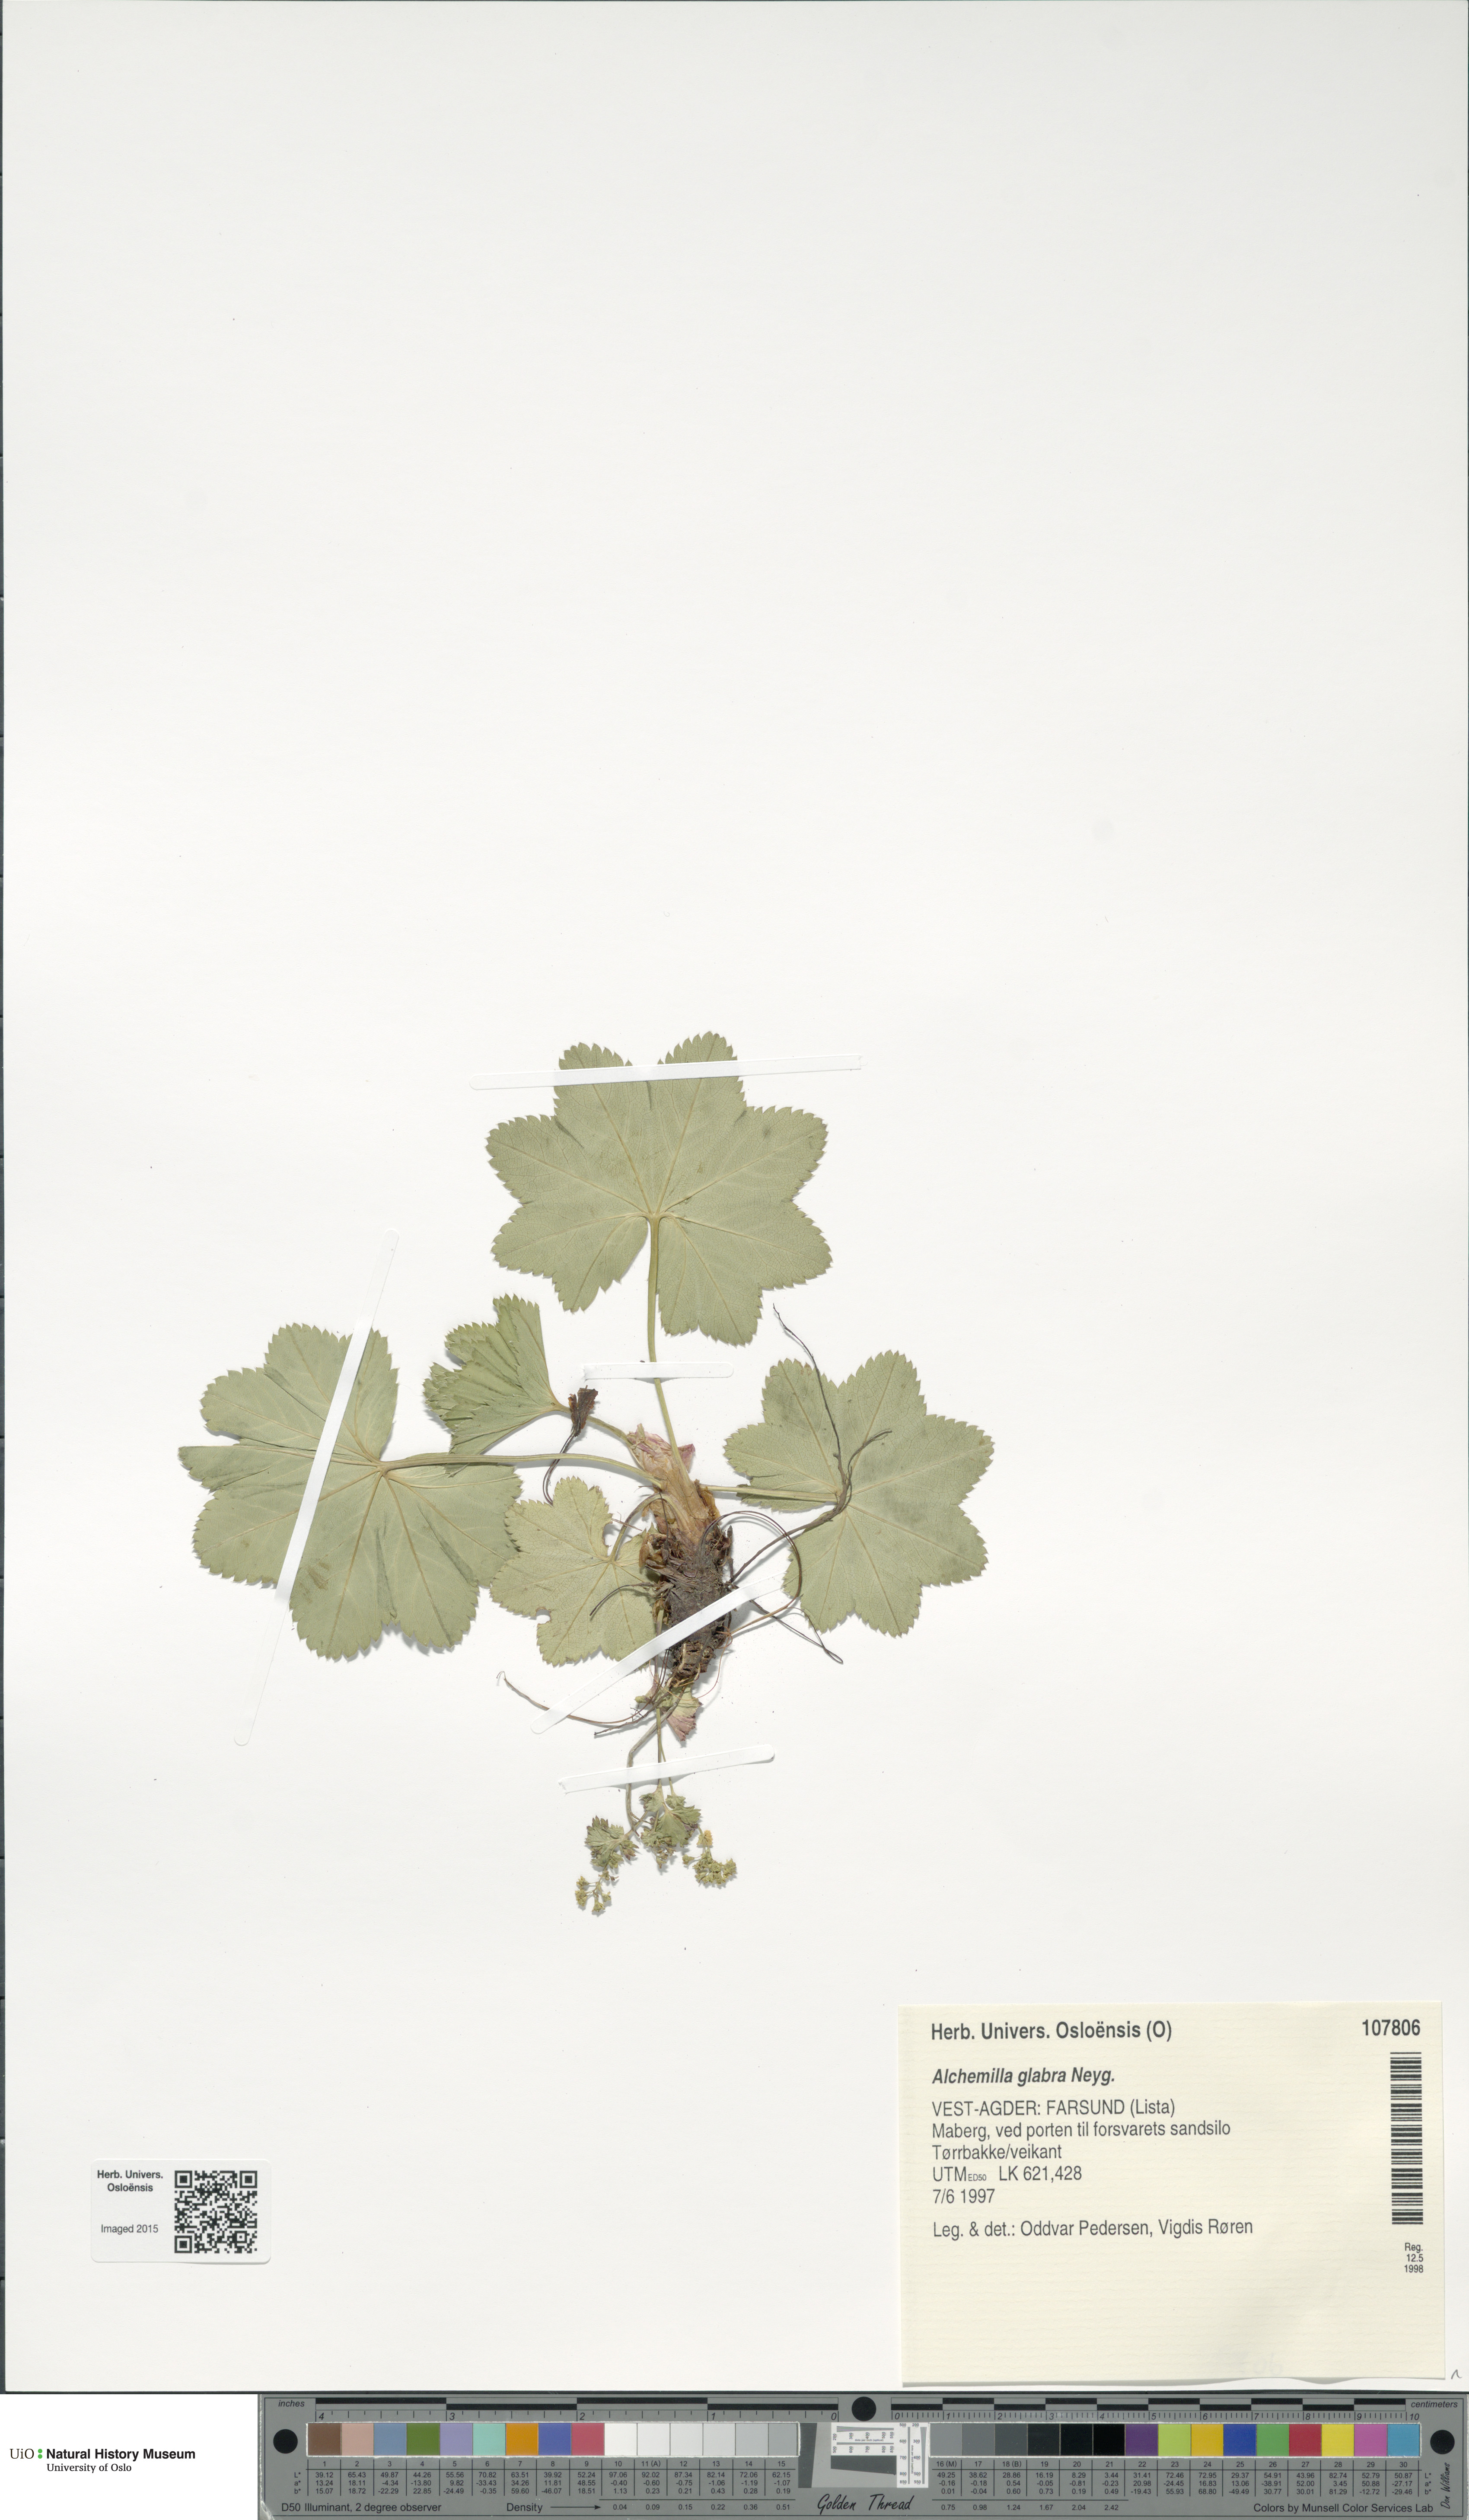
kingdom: Plantae
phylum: Tracheophyta
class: Magnoliopsida
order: Rosales
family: Rosaceae
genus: Alchemilla
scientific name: Alchemilla glabra
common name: Smooth lady's-mantle
